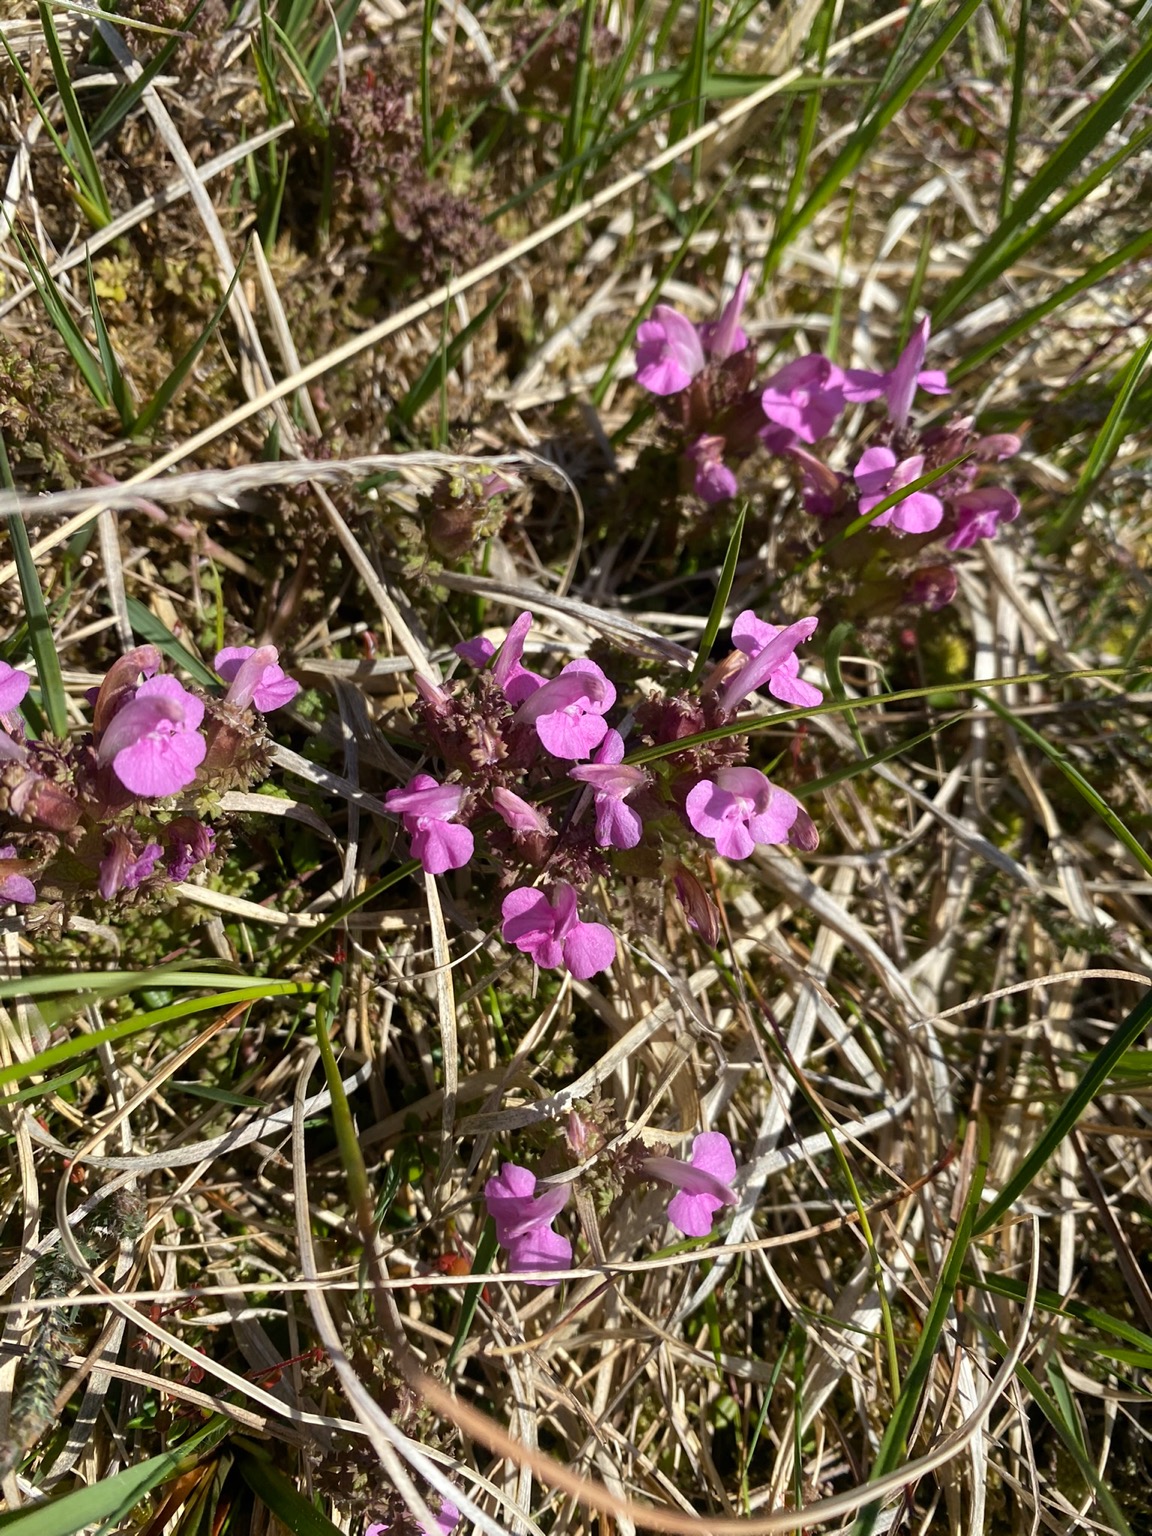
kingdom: Plantae
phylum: Tracheophyta
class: Magnoliopsida
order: Lamiales
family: Orobanchaceae
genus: Pedicularis
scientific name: Pedicularis sylvatica
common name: Mose-troldurt
